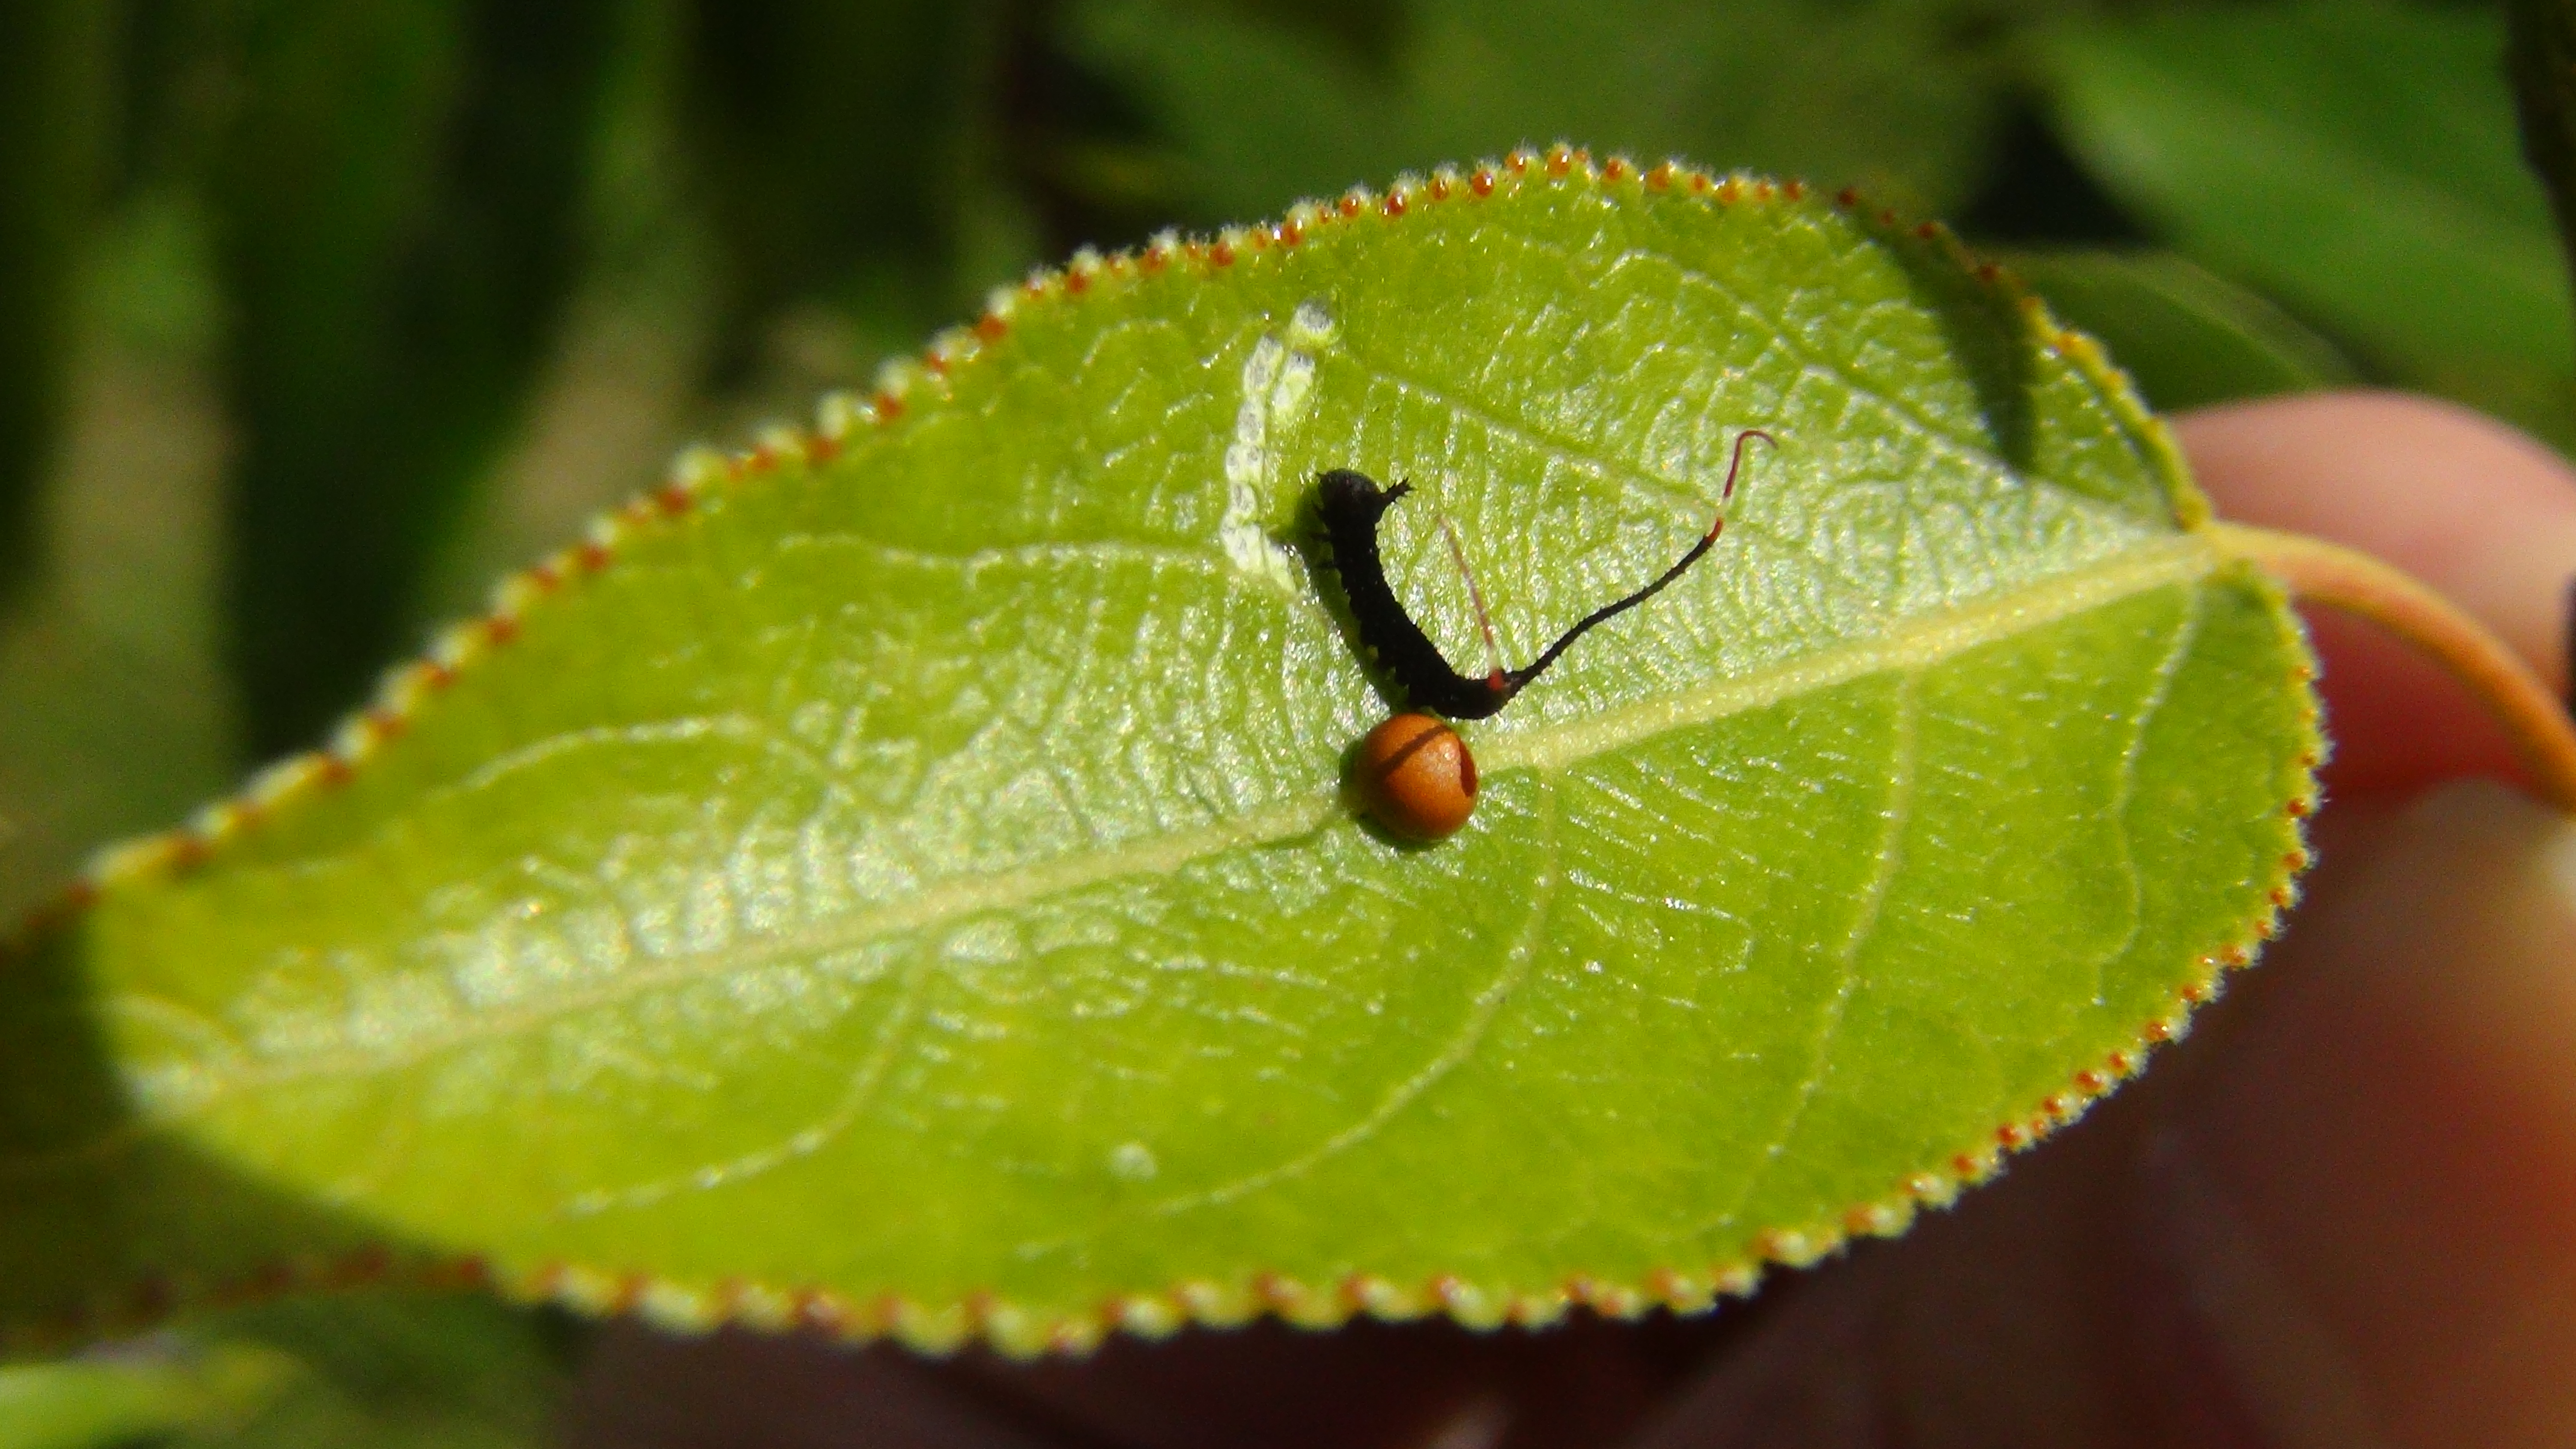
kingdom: Animalia
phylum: Arthropoda
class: Insecta
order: Lepidoptera
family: Notodontidae
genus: Cerura
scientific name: Cerura vinula
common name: Puss moth
